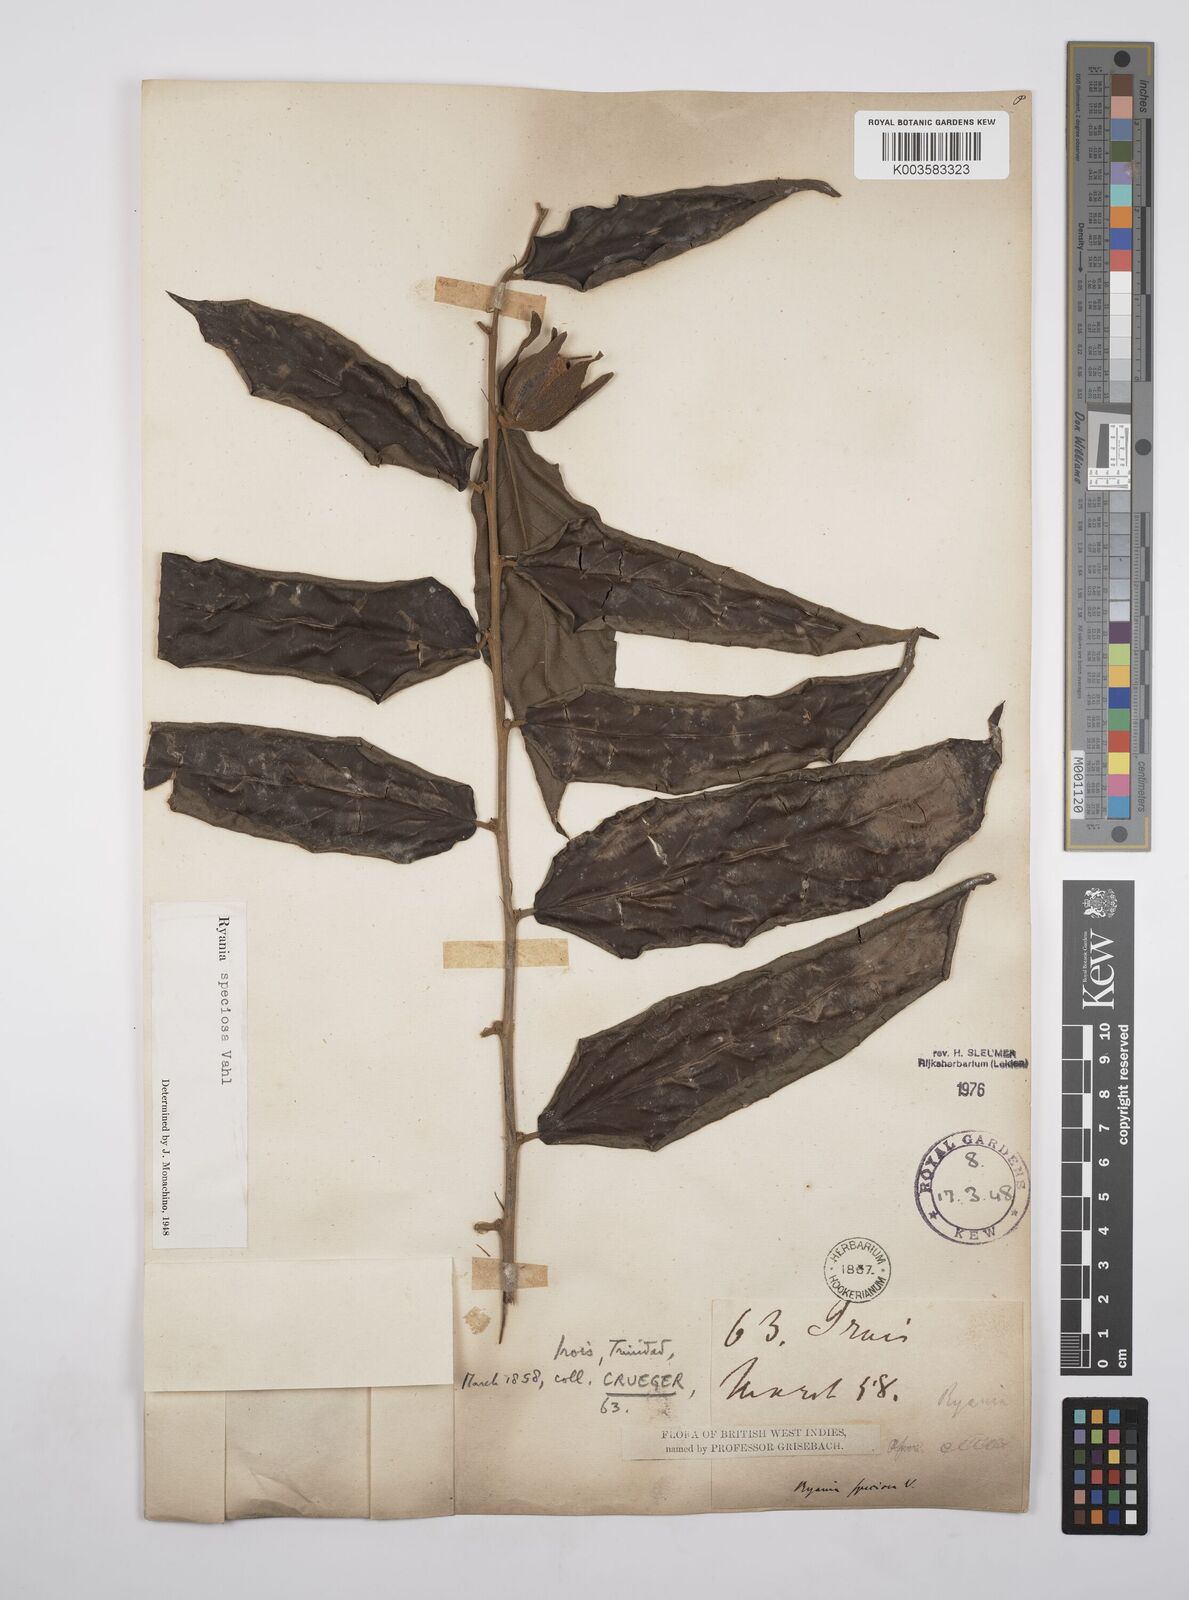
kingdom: Plantae
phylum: Tracheophyta
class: Magnoliopsida
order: Malpighiales
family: Salicaceae
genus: Ryania
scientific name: Ryania speciosa
